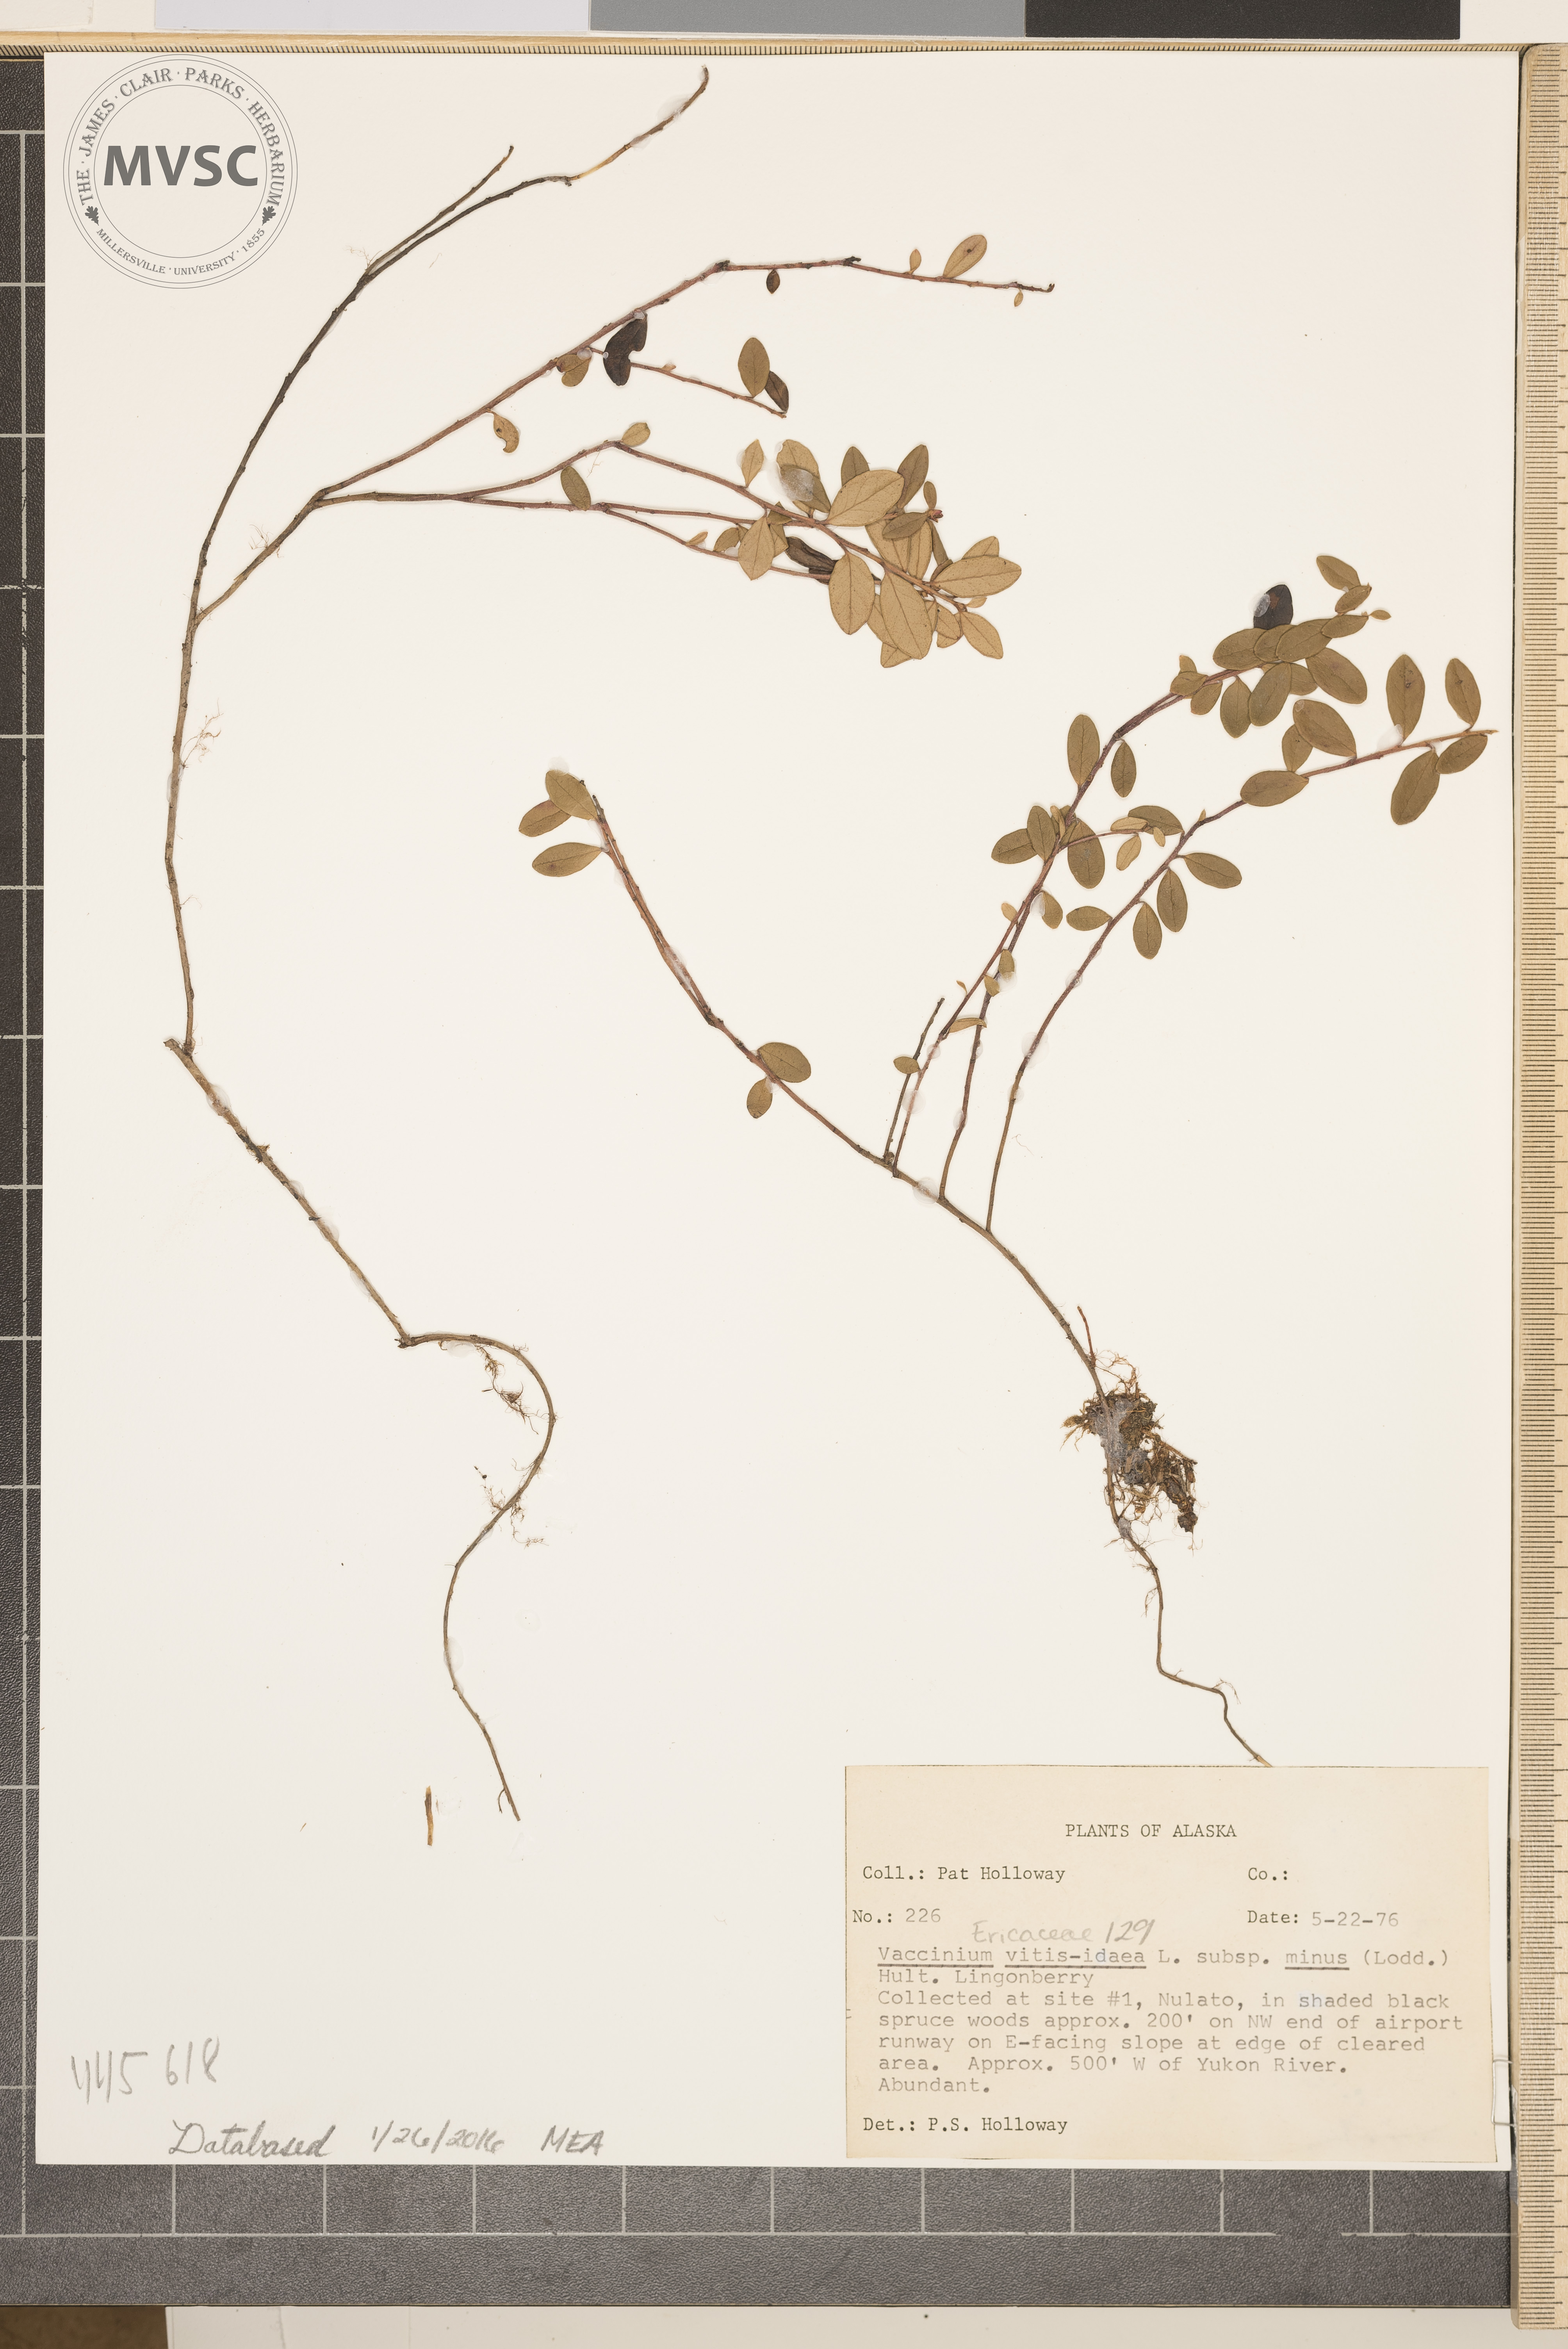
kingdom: Plantae
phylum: Tracheophyta
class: Magnoliopsida
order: Ericales
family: Ericaceae
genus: Vaccinium
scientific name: Vaccinium vitis-idaea
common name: Cowberry
